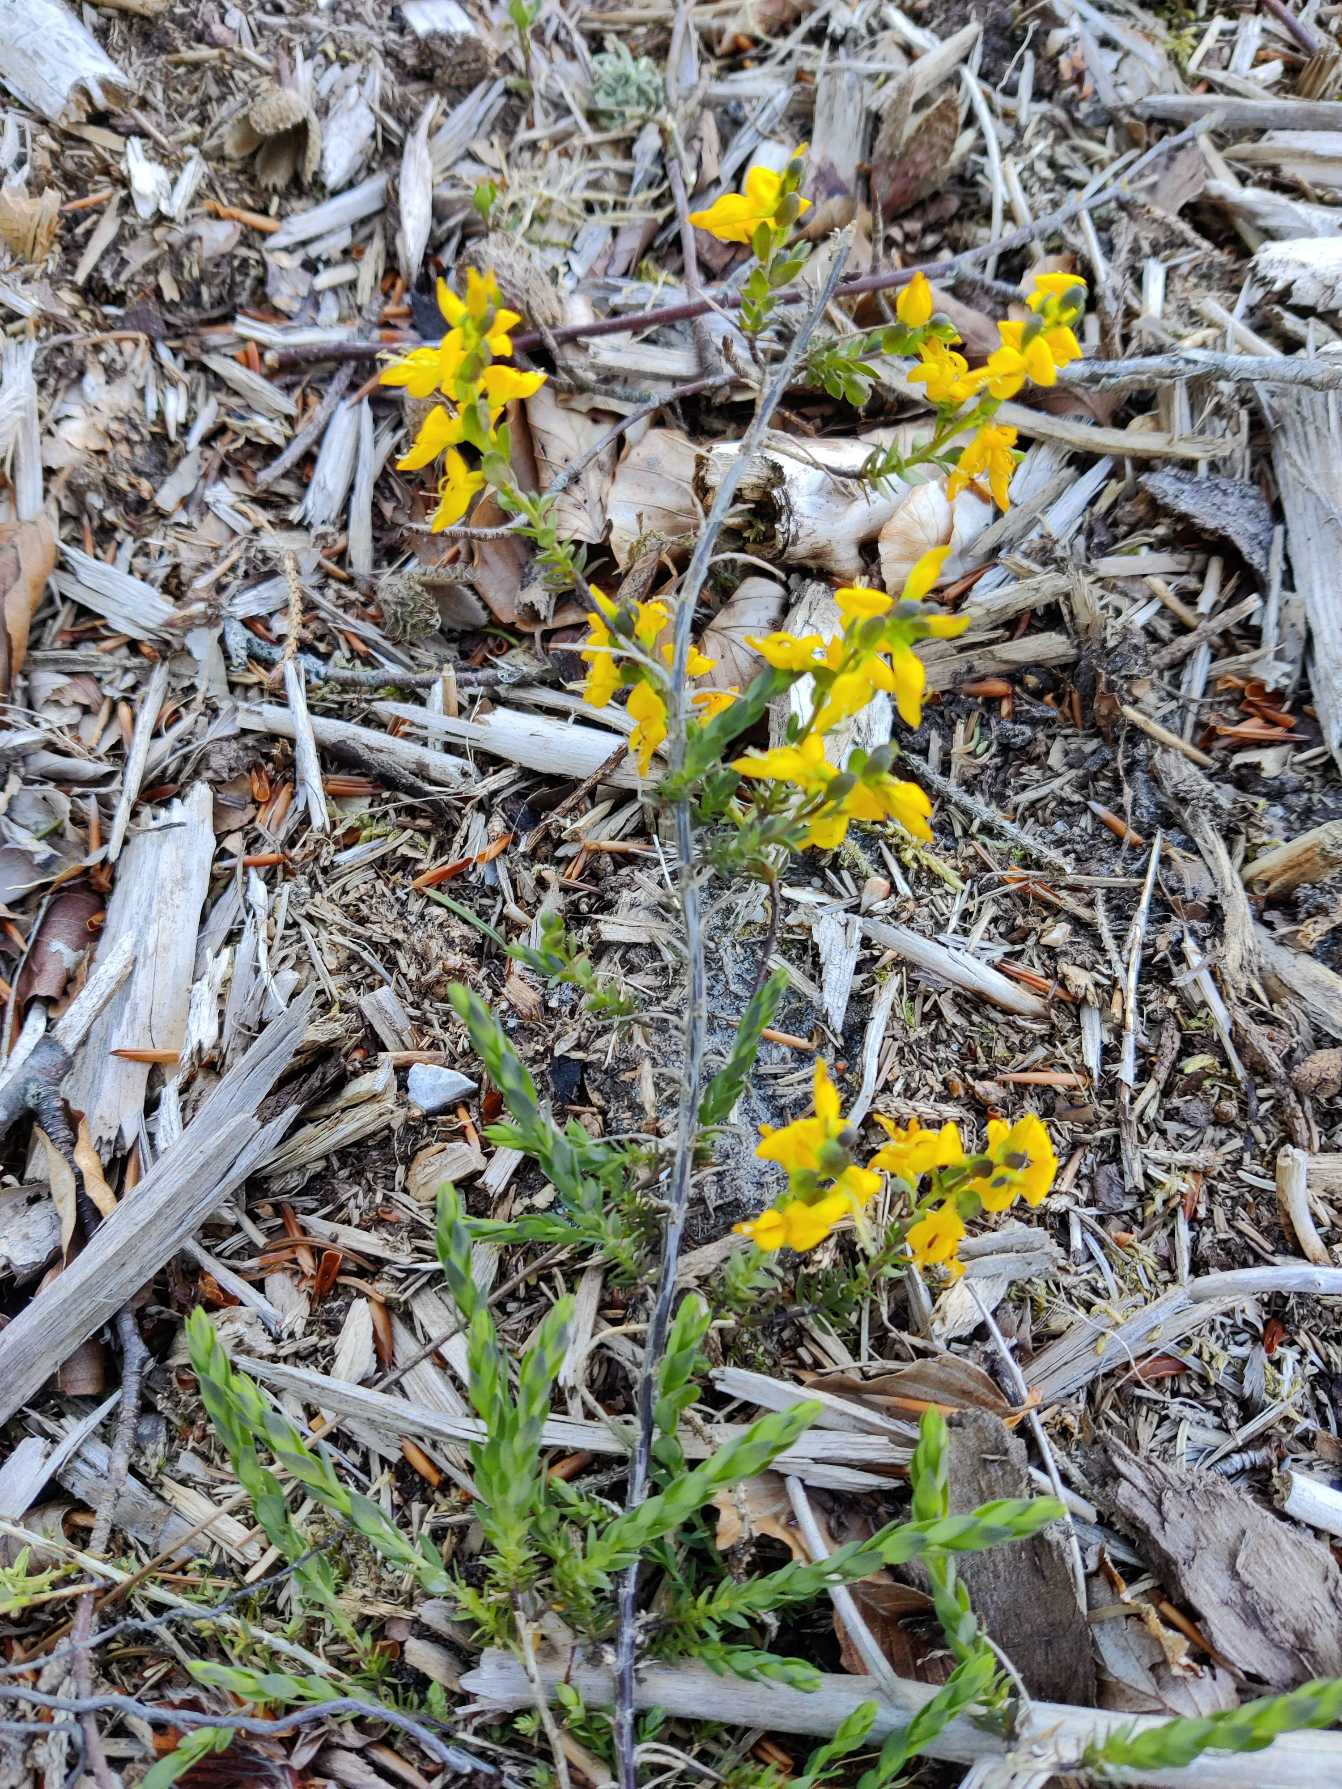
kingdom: Plantae
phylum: Tracheophyta
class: Magnoliopsida
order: Fabales
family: Fabaceae
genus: Genista
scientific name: Genista anglica
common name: Engelsk visse
